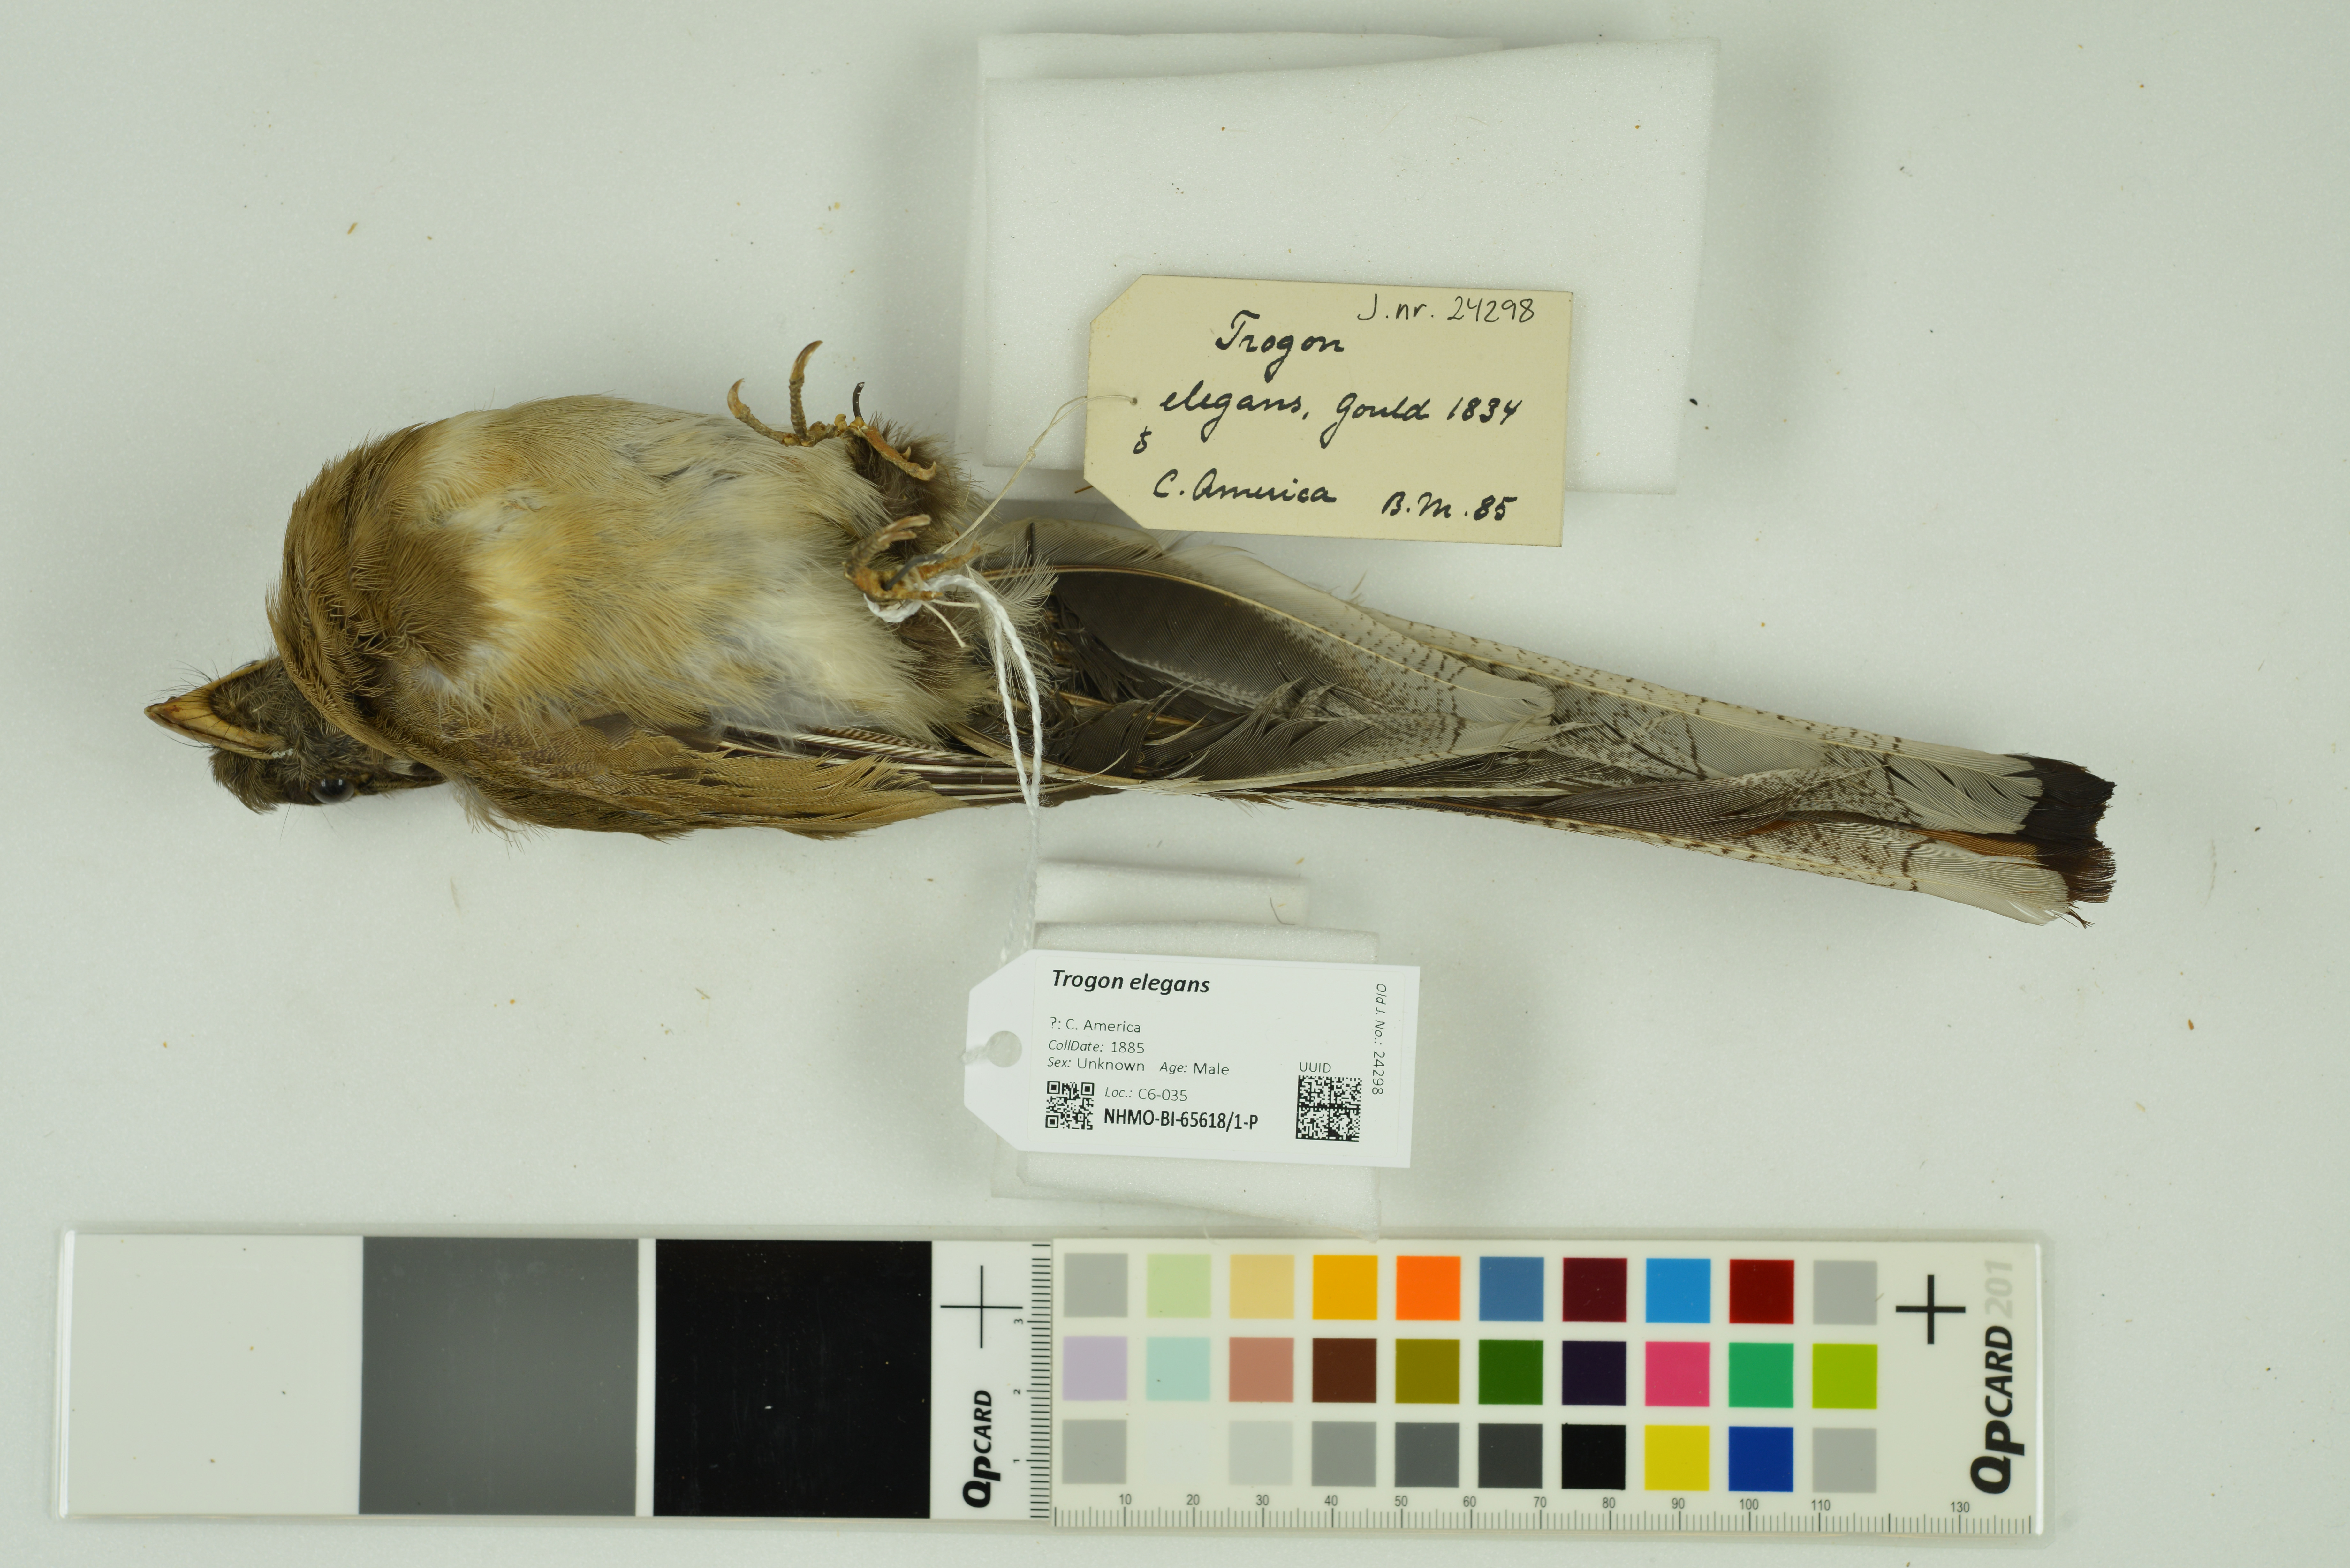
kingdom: Animalia
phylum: Chordata
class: Aves
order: Trogoniformes
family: Trogonidae
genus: Trogon
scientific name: Trogon elegans
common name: Elegant trogon
